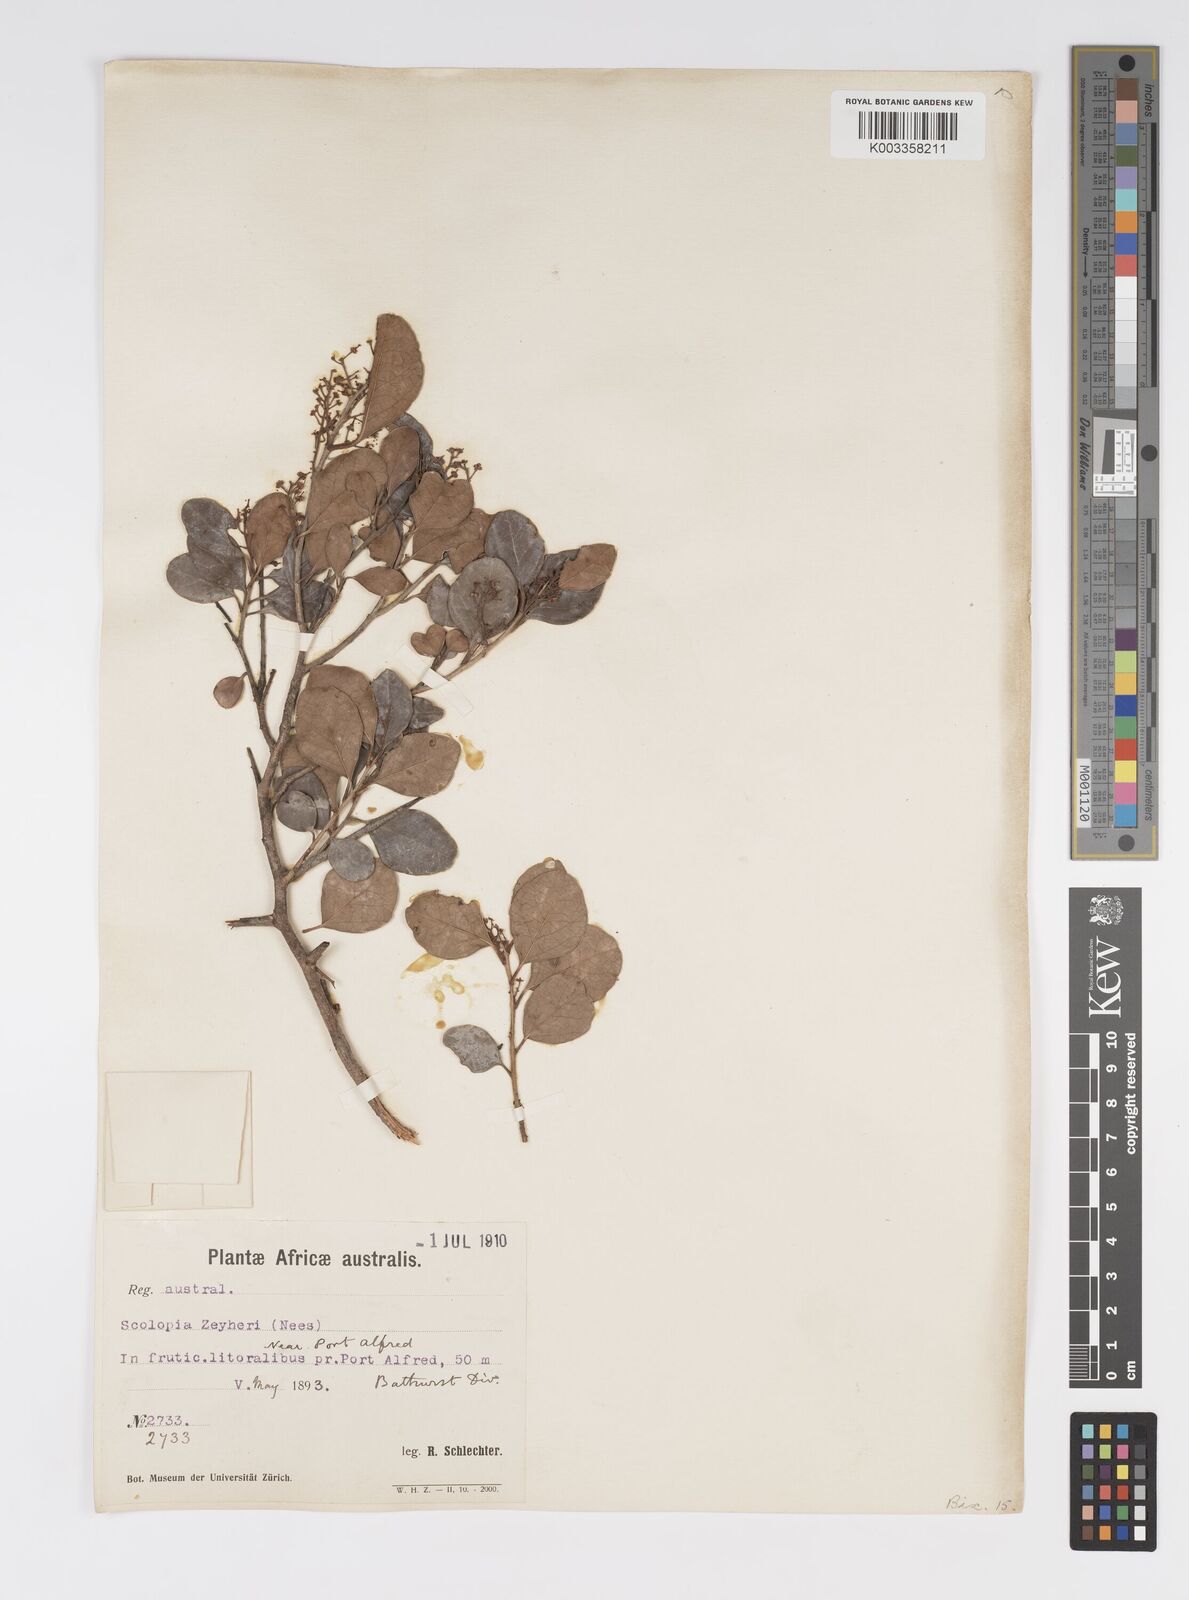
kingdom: Plantae
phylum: Tracheophyta
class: Magnoliopsida
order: Malpighiales
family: Salicaceae
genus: Scolopia
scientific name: Scolopia zeyheri
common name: Thorn pear
